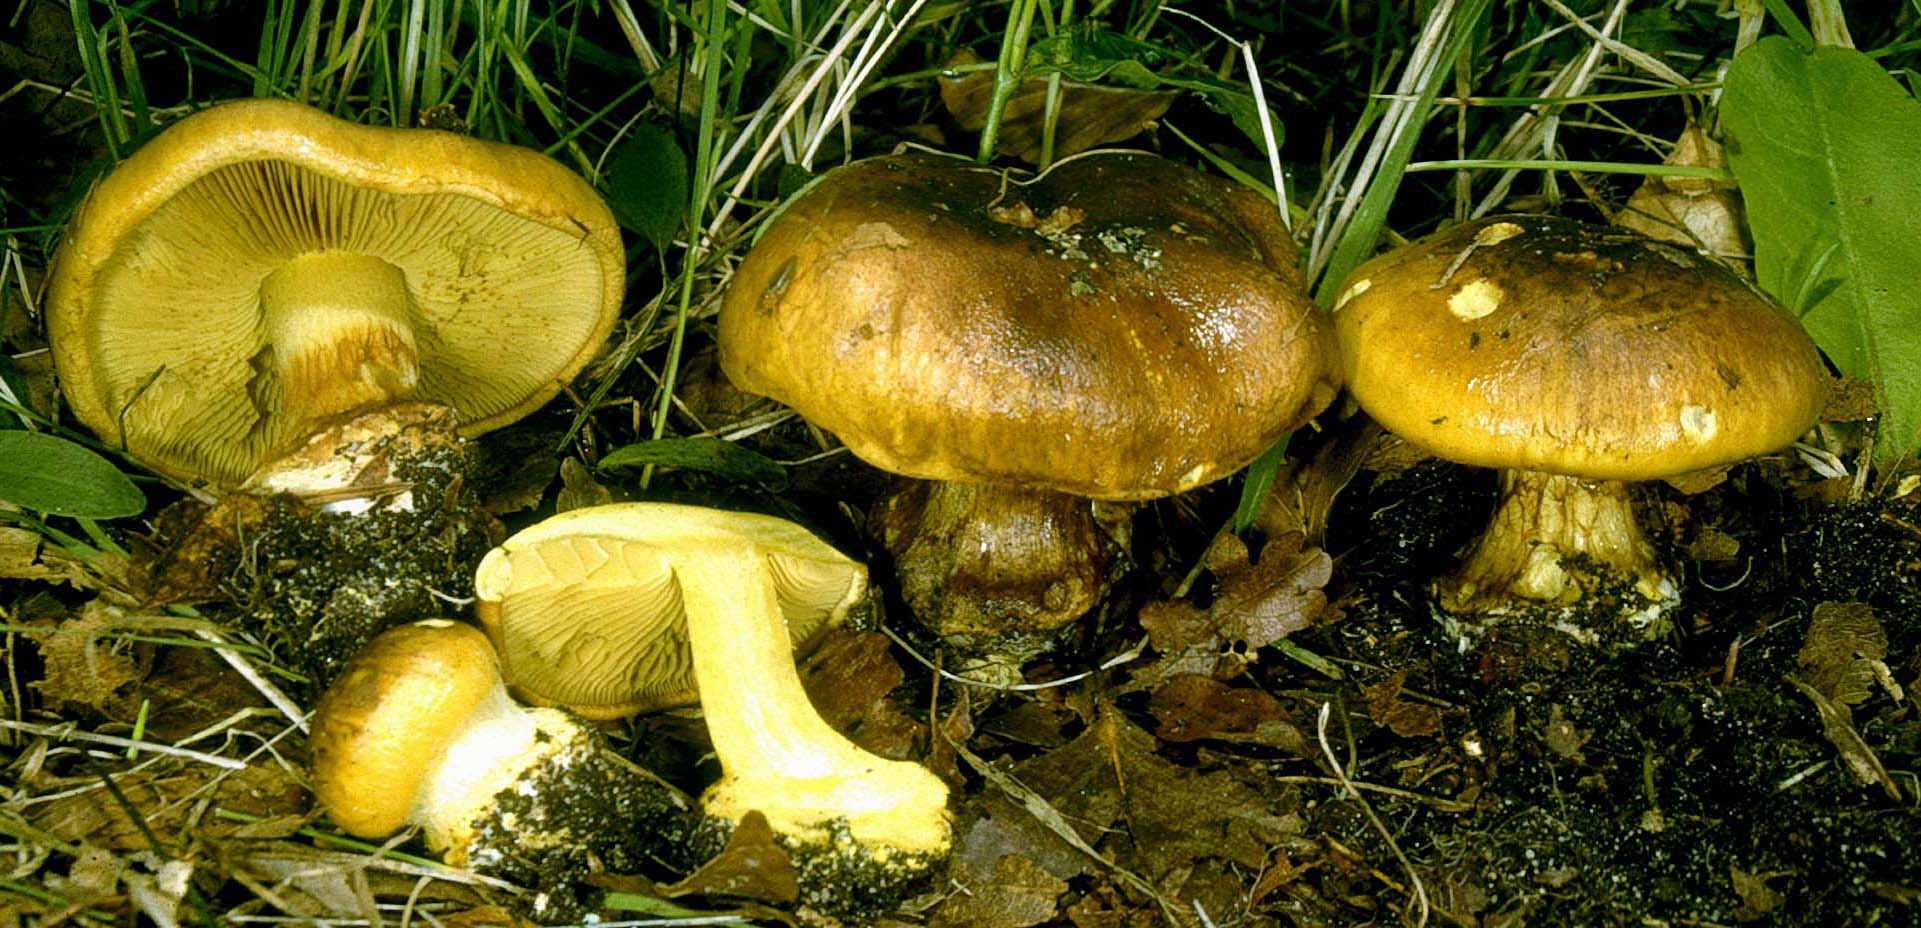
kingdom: Fungi
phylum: Basidiomycota
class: Agaricomycetes
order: Agaricales
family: Cortinariaceae
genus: Calonarius
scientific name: Calonarius citrinus
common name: citrongul slørhat
